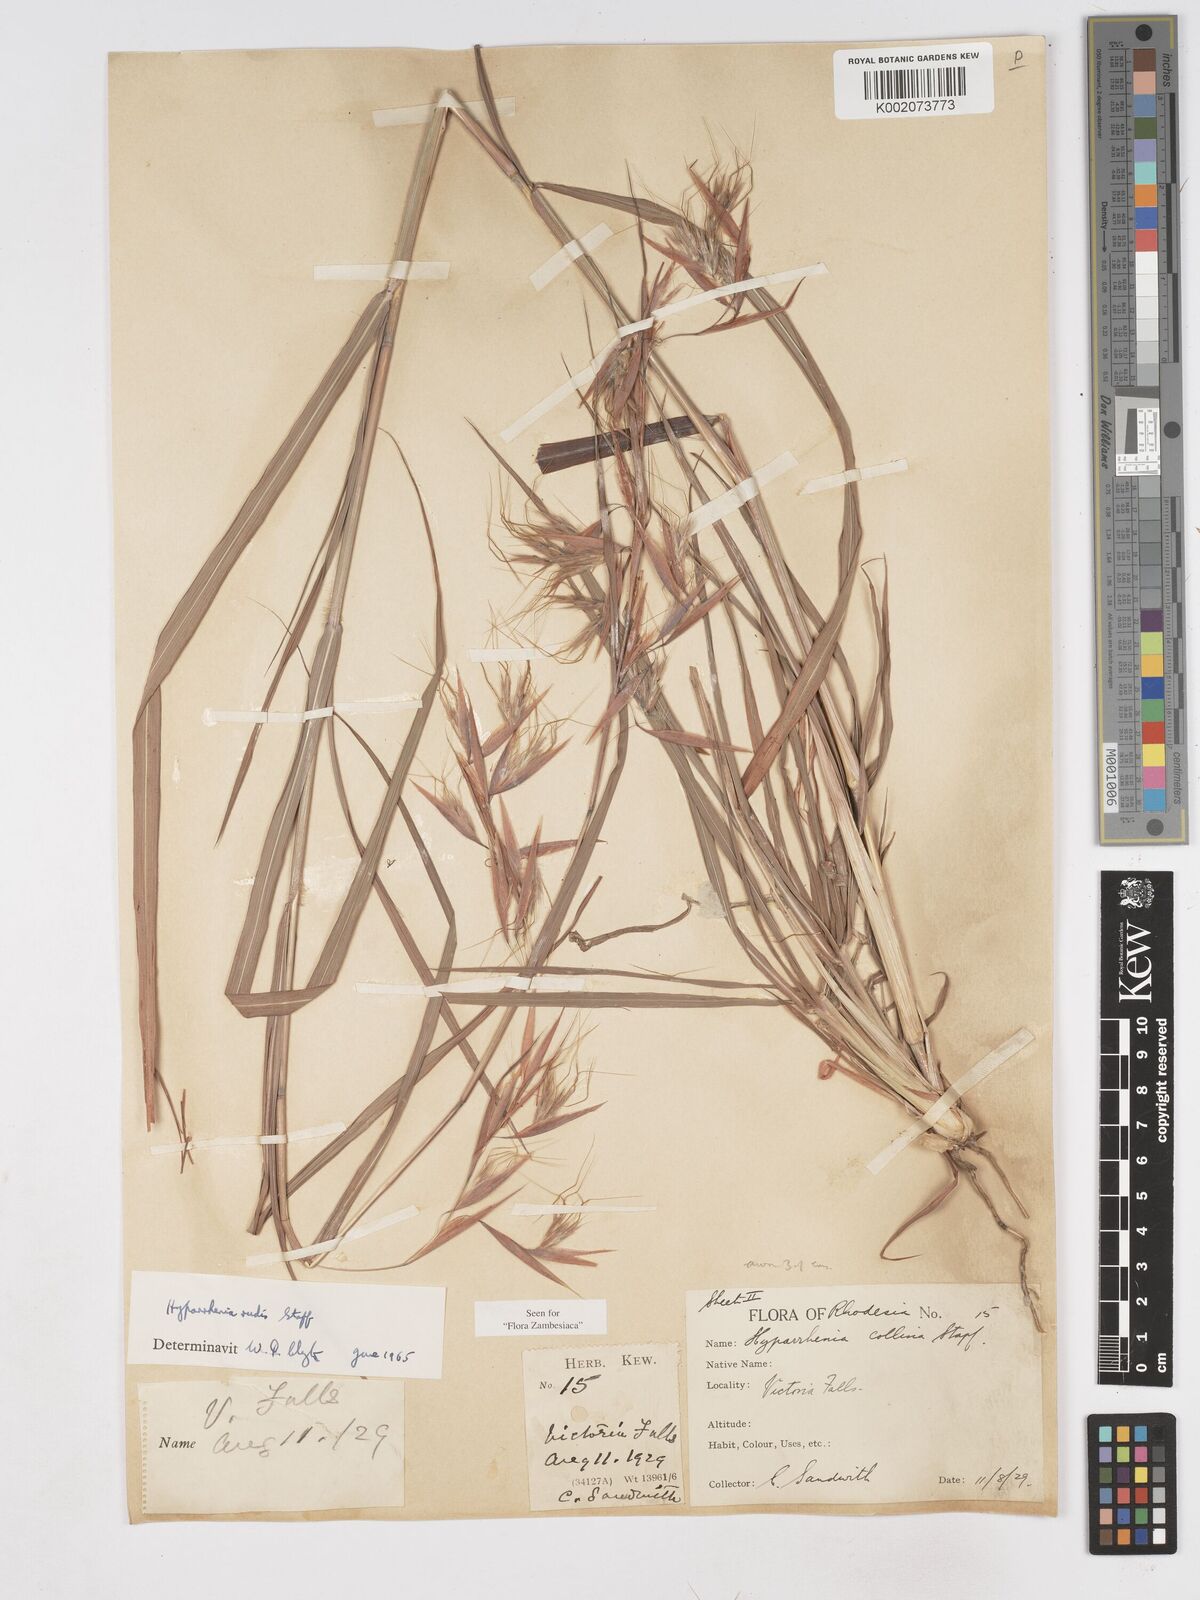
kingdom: Plantae
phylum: Tracheophyta
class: Liliopsida
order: Poales
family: Poaceae
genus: Hyparrhenia
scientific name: Hyparrhenia rudis
